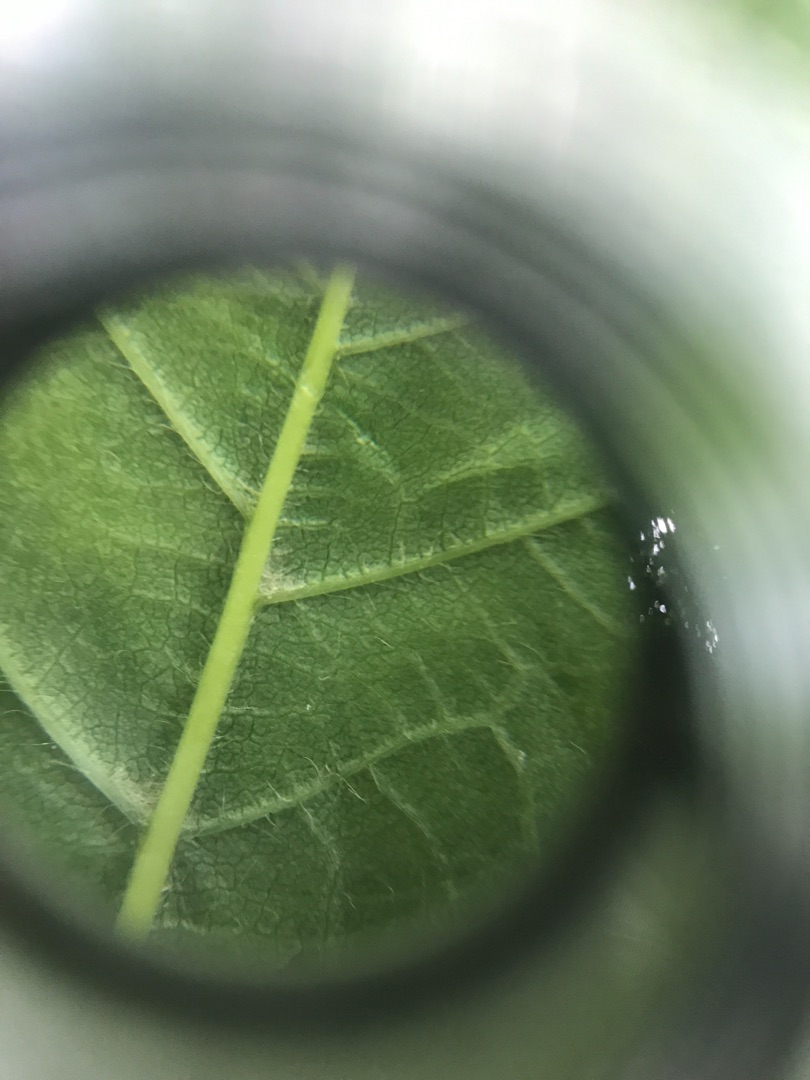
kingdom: Plantae
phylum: Tracheophyta
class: Magnoliopsida
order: Rosales
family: Rosaceae
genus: Prunus
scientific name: Prunus avium
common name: Fugle-kirsebær
